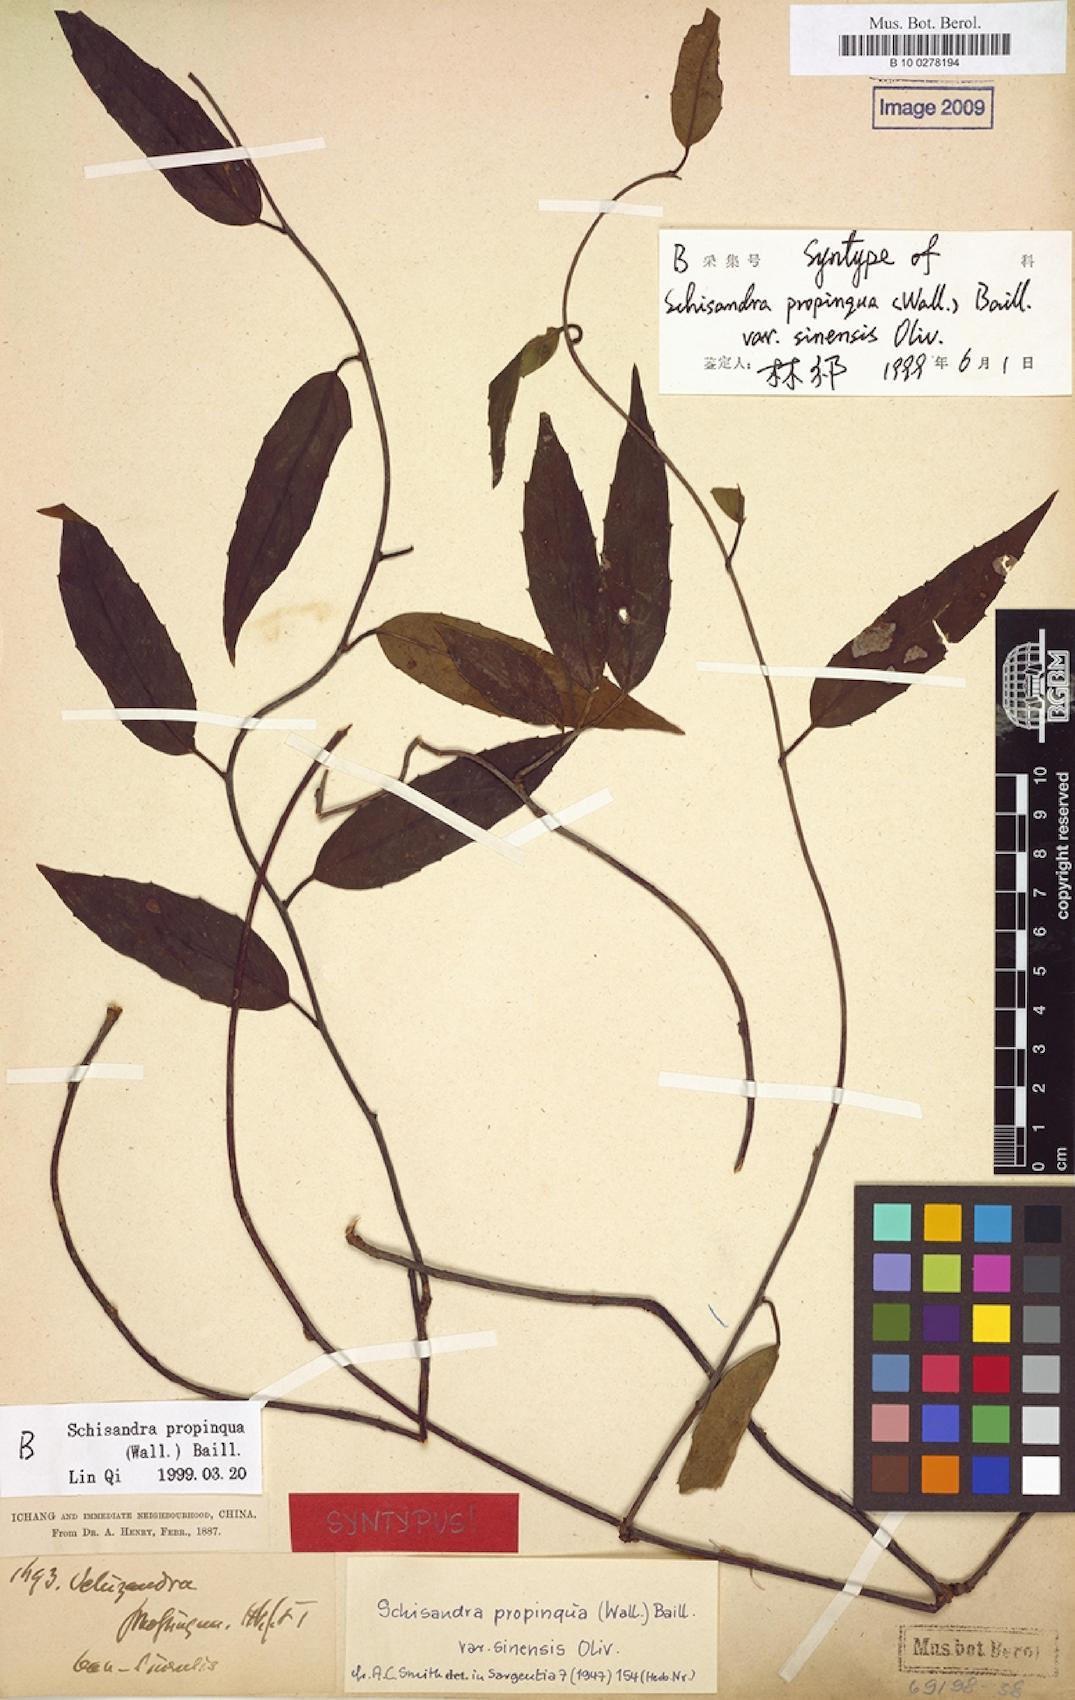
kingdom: Plantae
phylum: Tracheophyta
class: Magnoliopsida
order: Austrobaileyales
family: Schisandraceae
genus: Schisandra
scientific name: Schisandra propinqua
